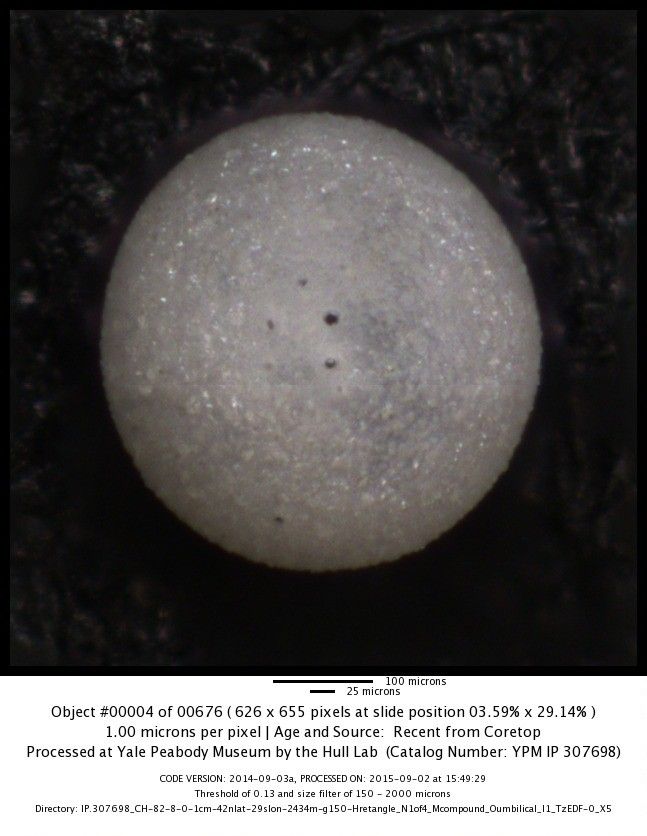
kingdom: Chromista
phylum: Foraminifera
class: Globothalamea
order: Rotaliida
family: Globigerinidae
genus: Orbulina
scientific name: Orbulina universa
